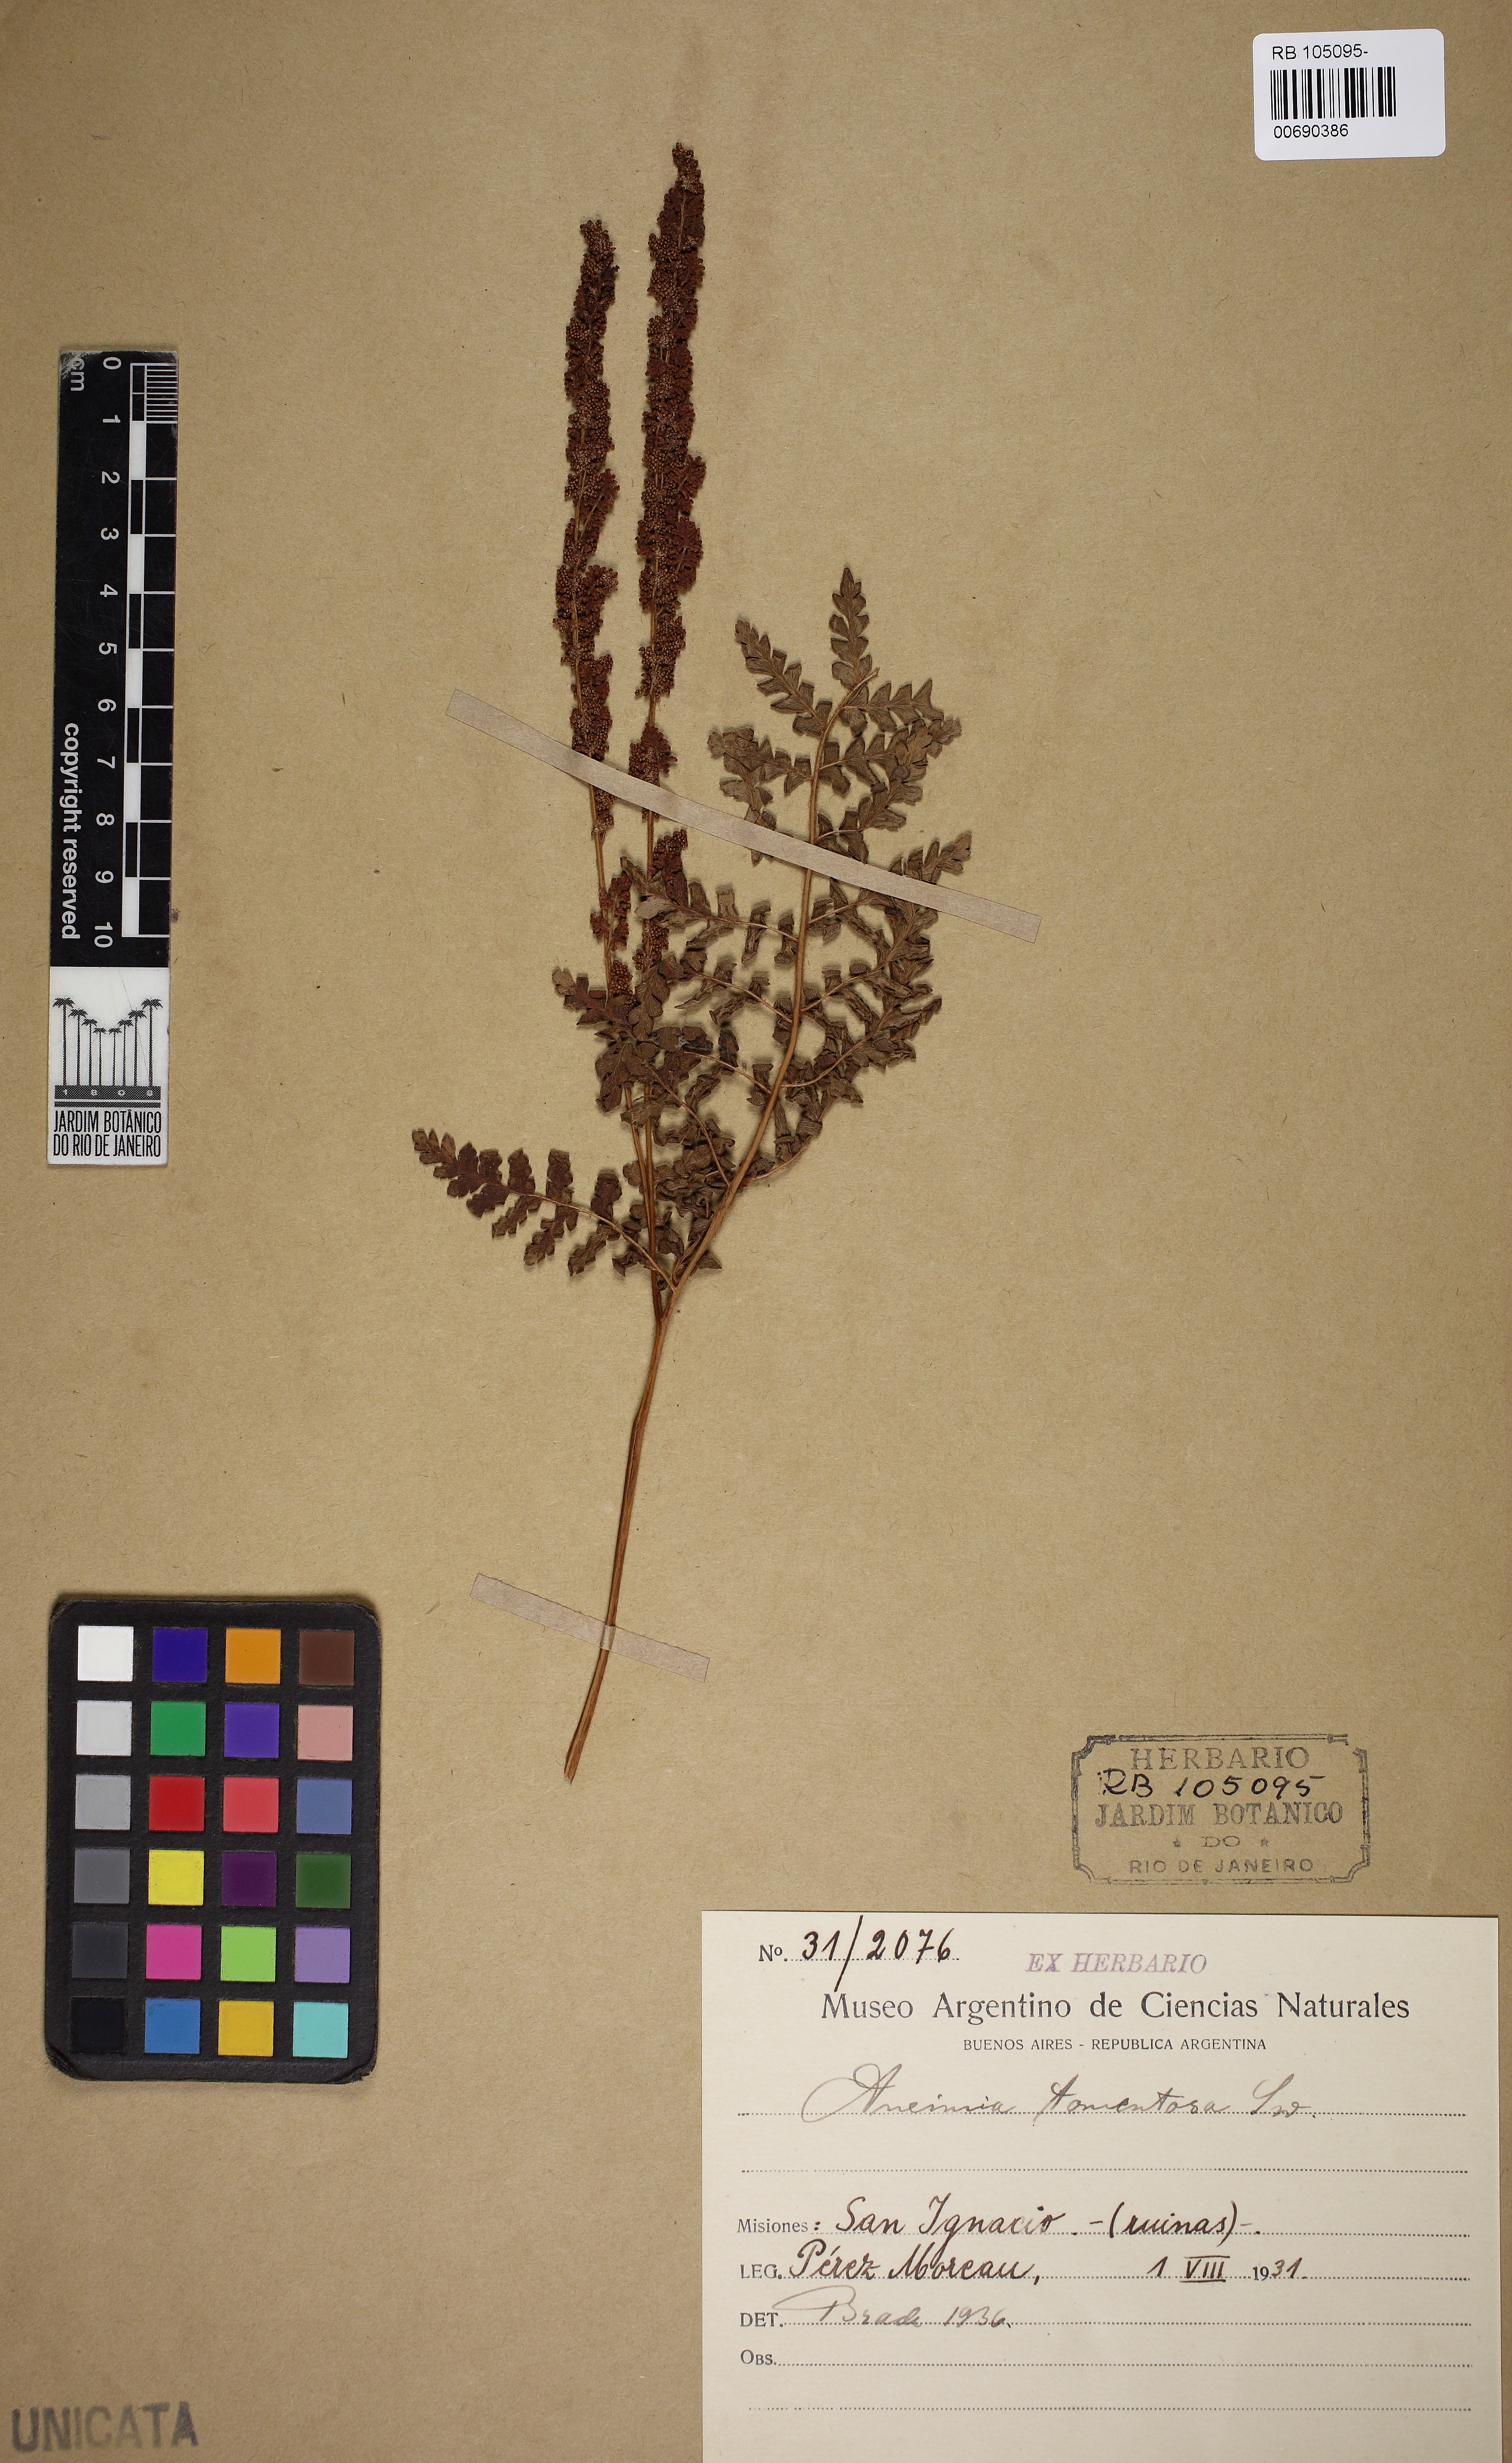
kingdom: Plantae
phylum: Tracheophyta
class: Polypodiopsida
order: Schizaeales
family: Anemiaceae
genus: Anemia
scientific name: Anemia tomentosa
